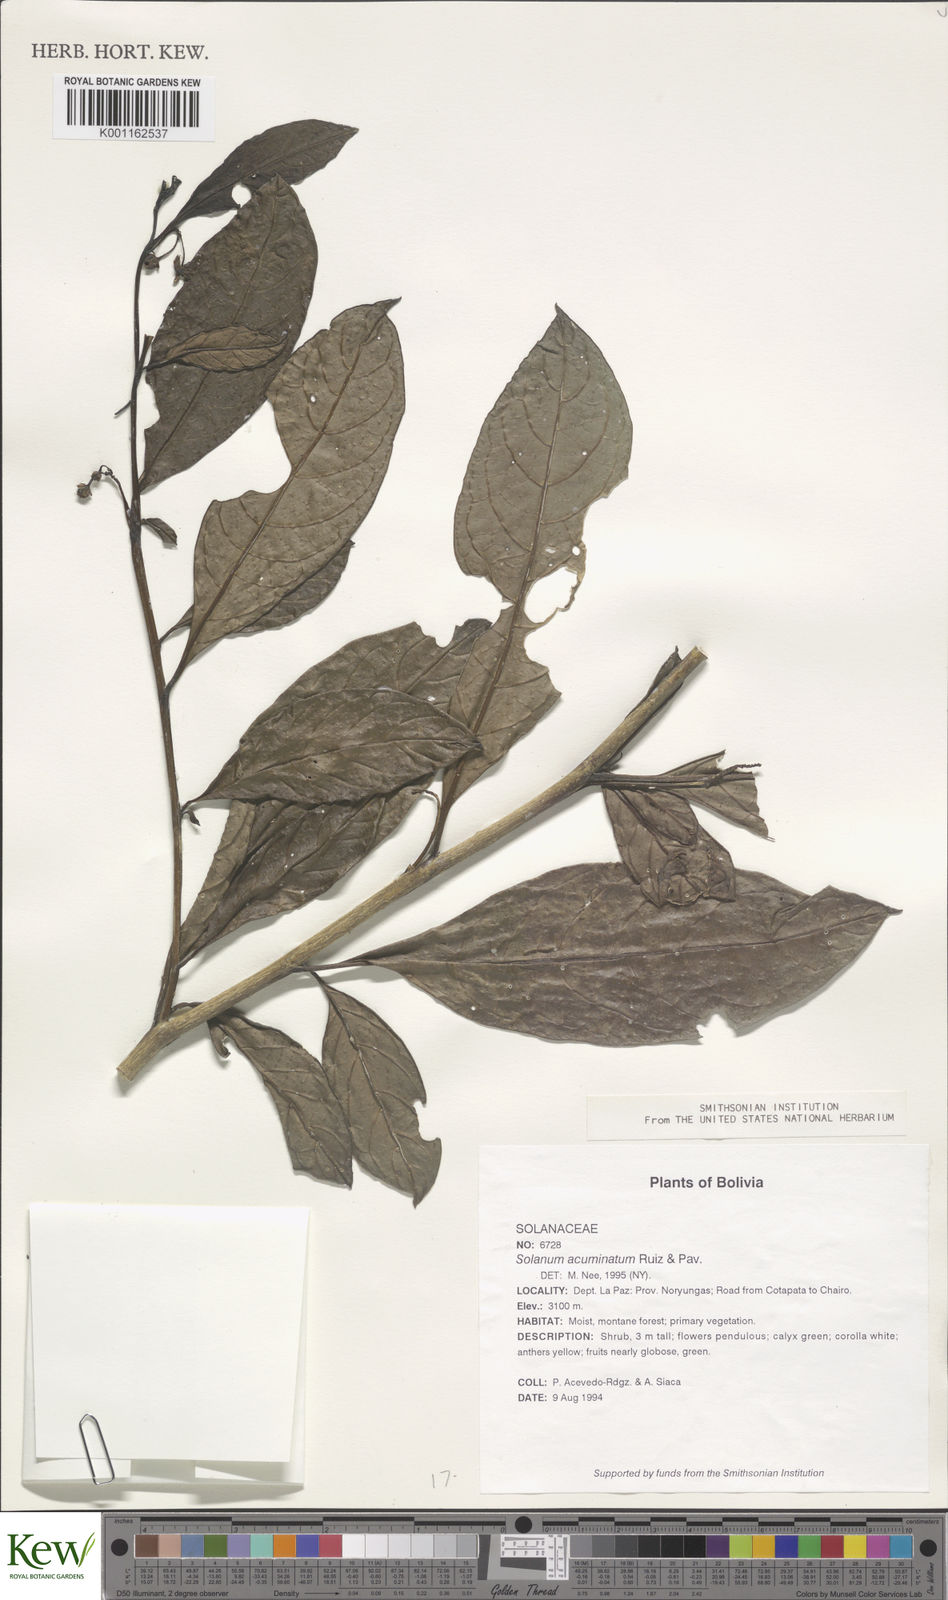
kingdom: Plantae
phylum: Tracheophyta
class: Magnoliopsida
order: Solanales
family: Solanaceae
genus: Solanum
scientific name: Solanum acuminatum
